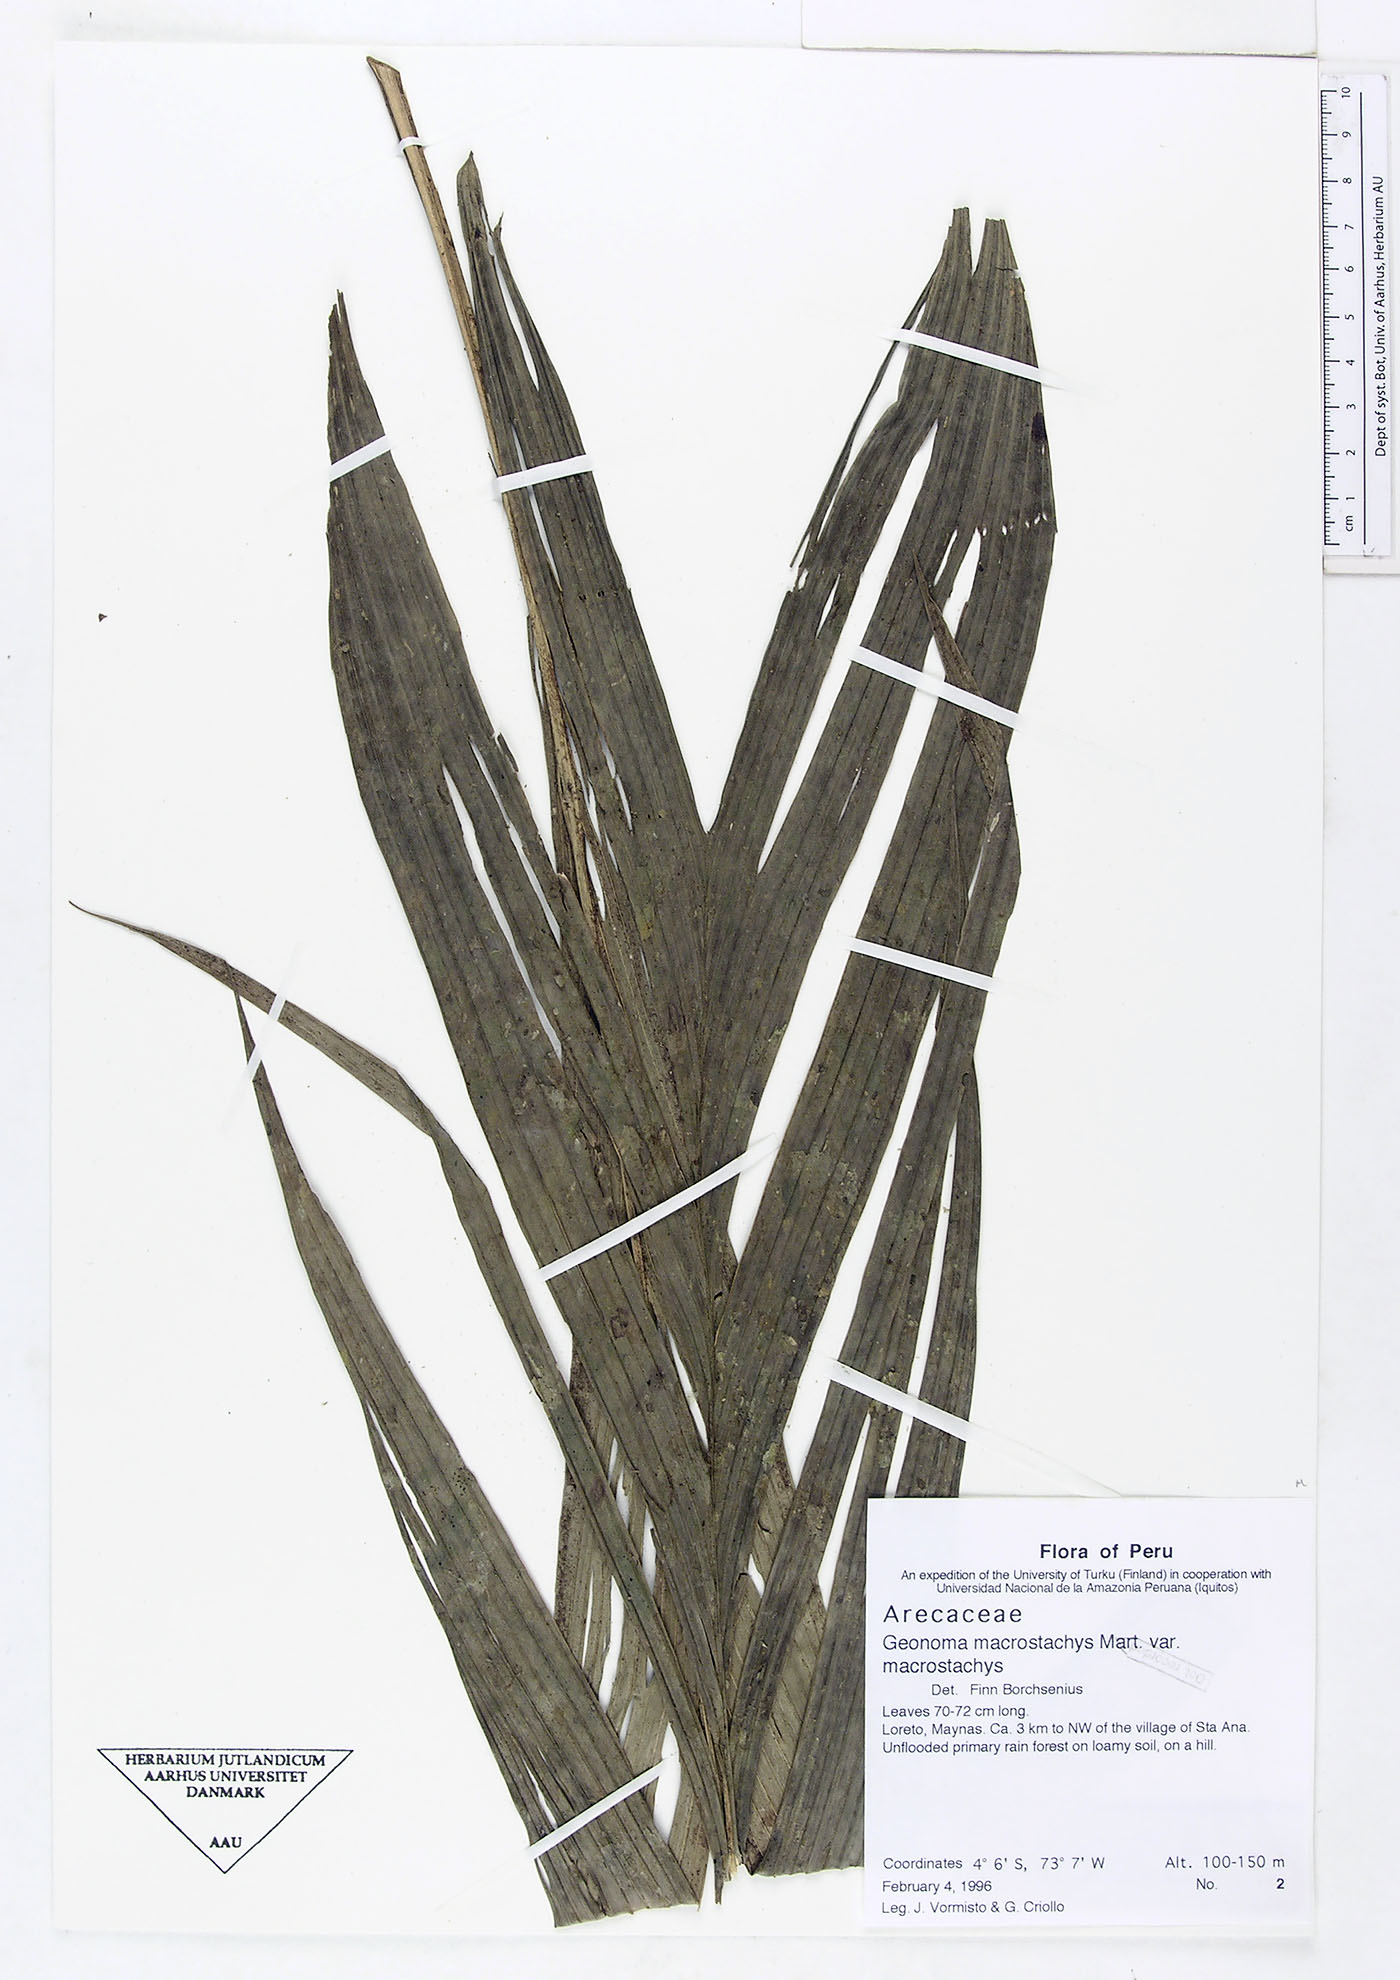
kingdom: Plantae
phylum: Tracheophyta
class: Liliopsida
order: Arecales
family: Arecaceae
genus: Geonoma
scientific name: Geonoma macrostachys
